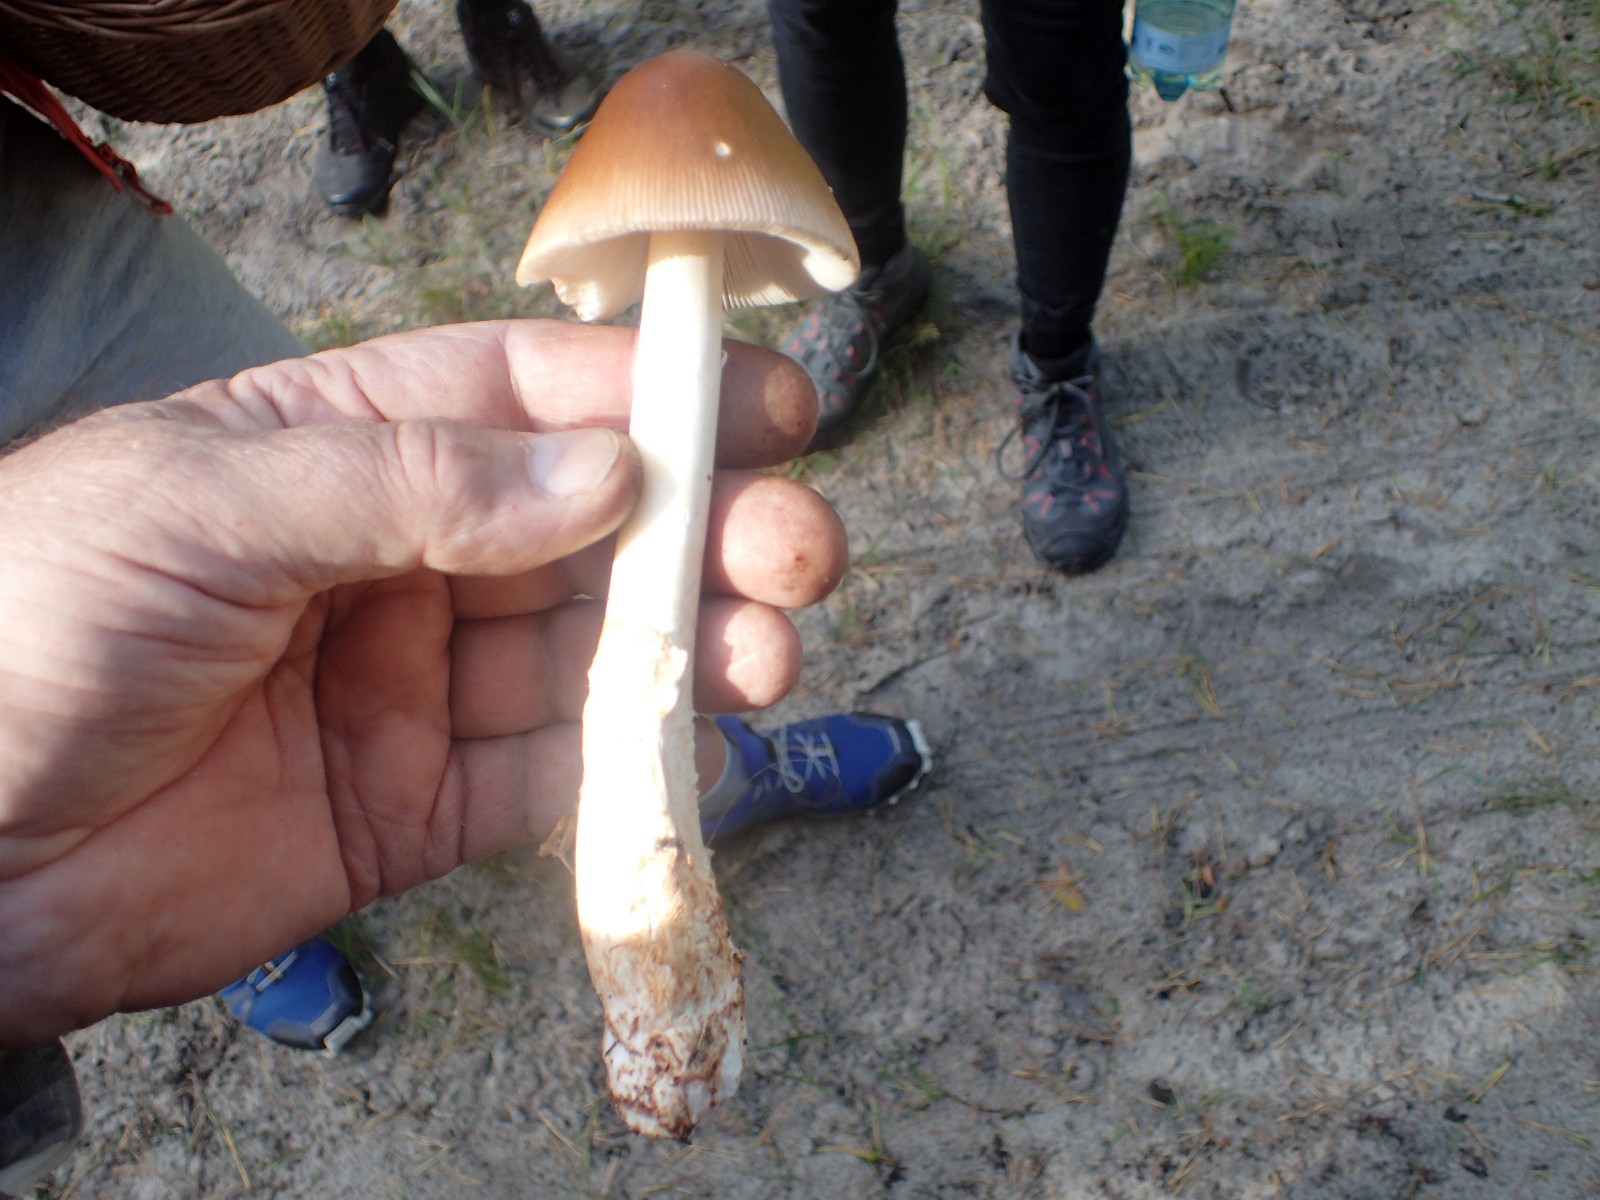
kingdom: Fungi
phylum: Basidiomycota
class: Agaricomycetes
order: Agaricales
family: Amanitaceae
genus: Amanita
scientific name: Amanita fulva
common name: brun kam-fluesvamp
